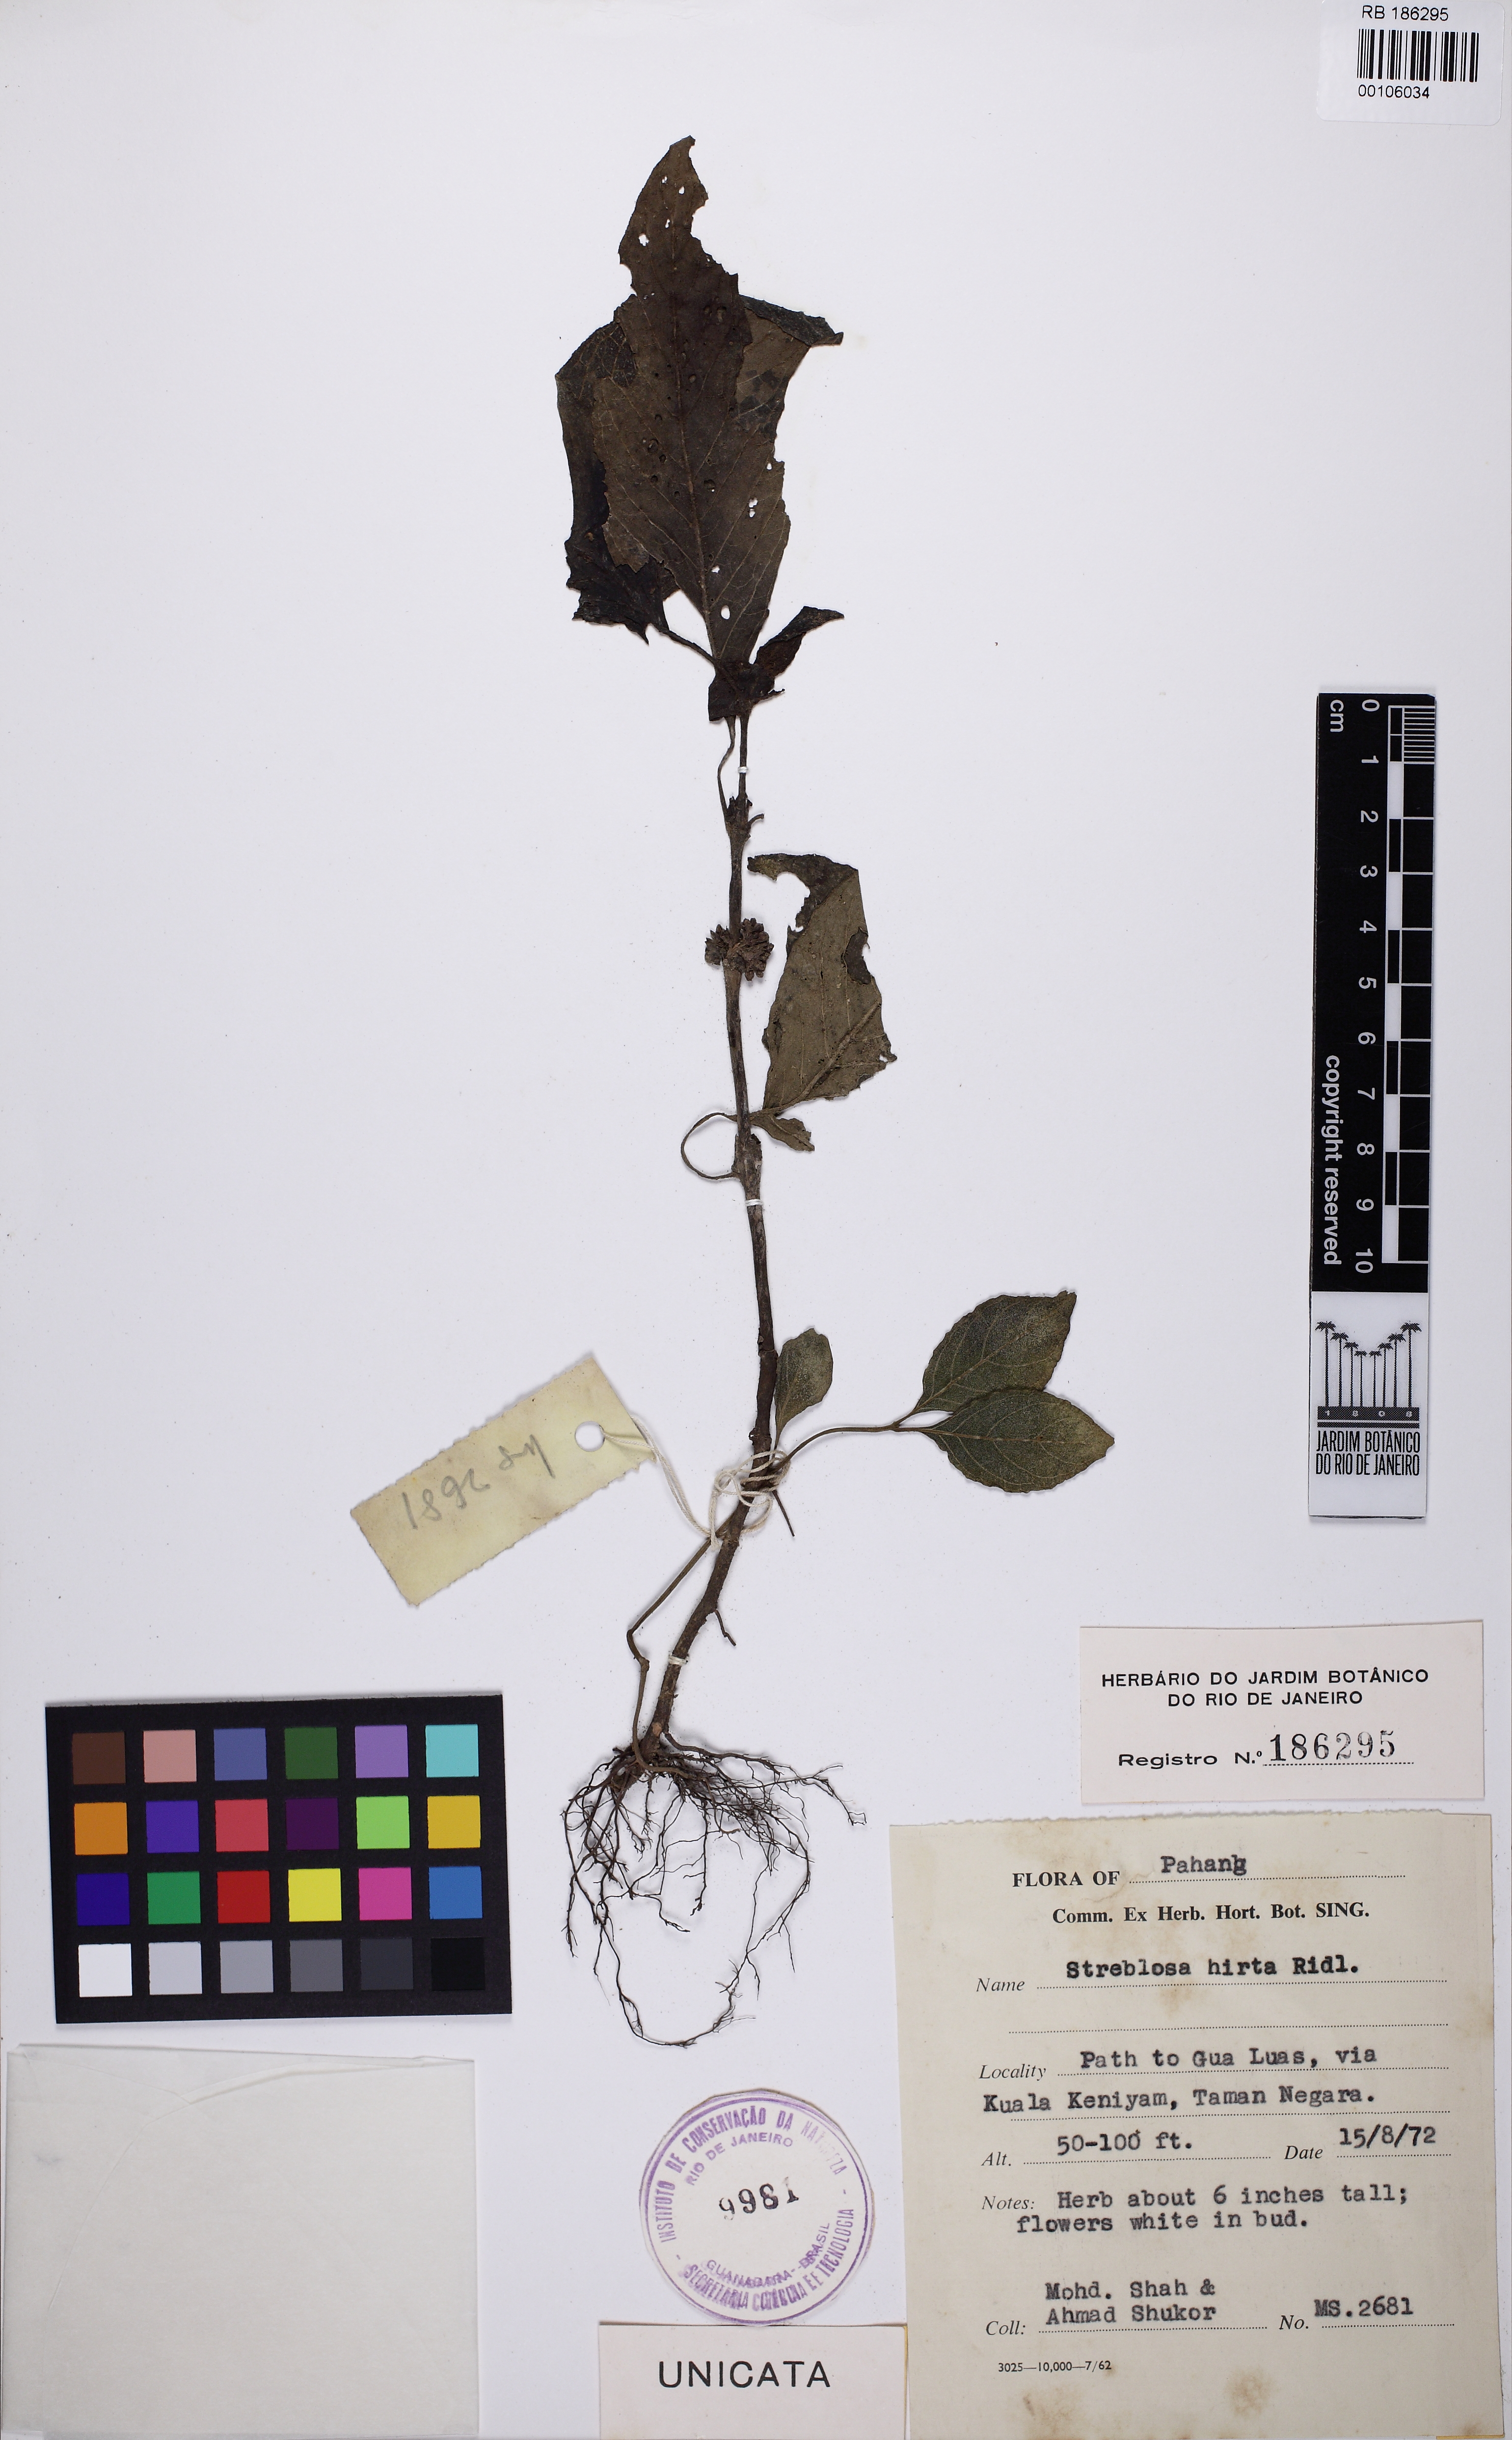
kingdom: Plantae
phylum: Tracheophyta
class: Magnoliopsida
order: Gentianales
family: Rubiaceae
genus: Streblosa
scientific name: Streblosa polyantha
